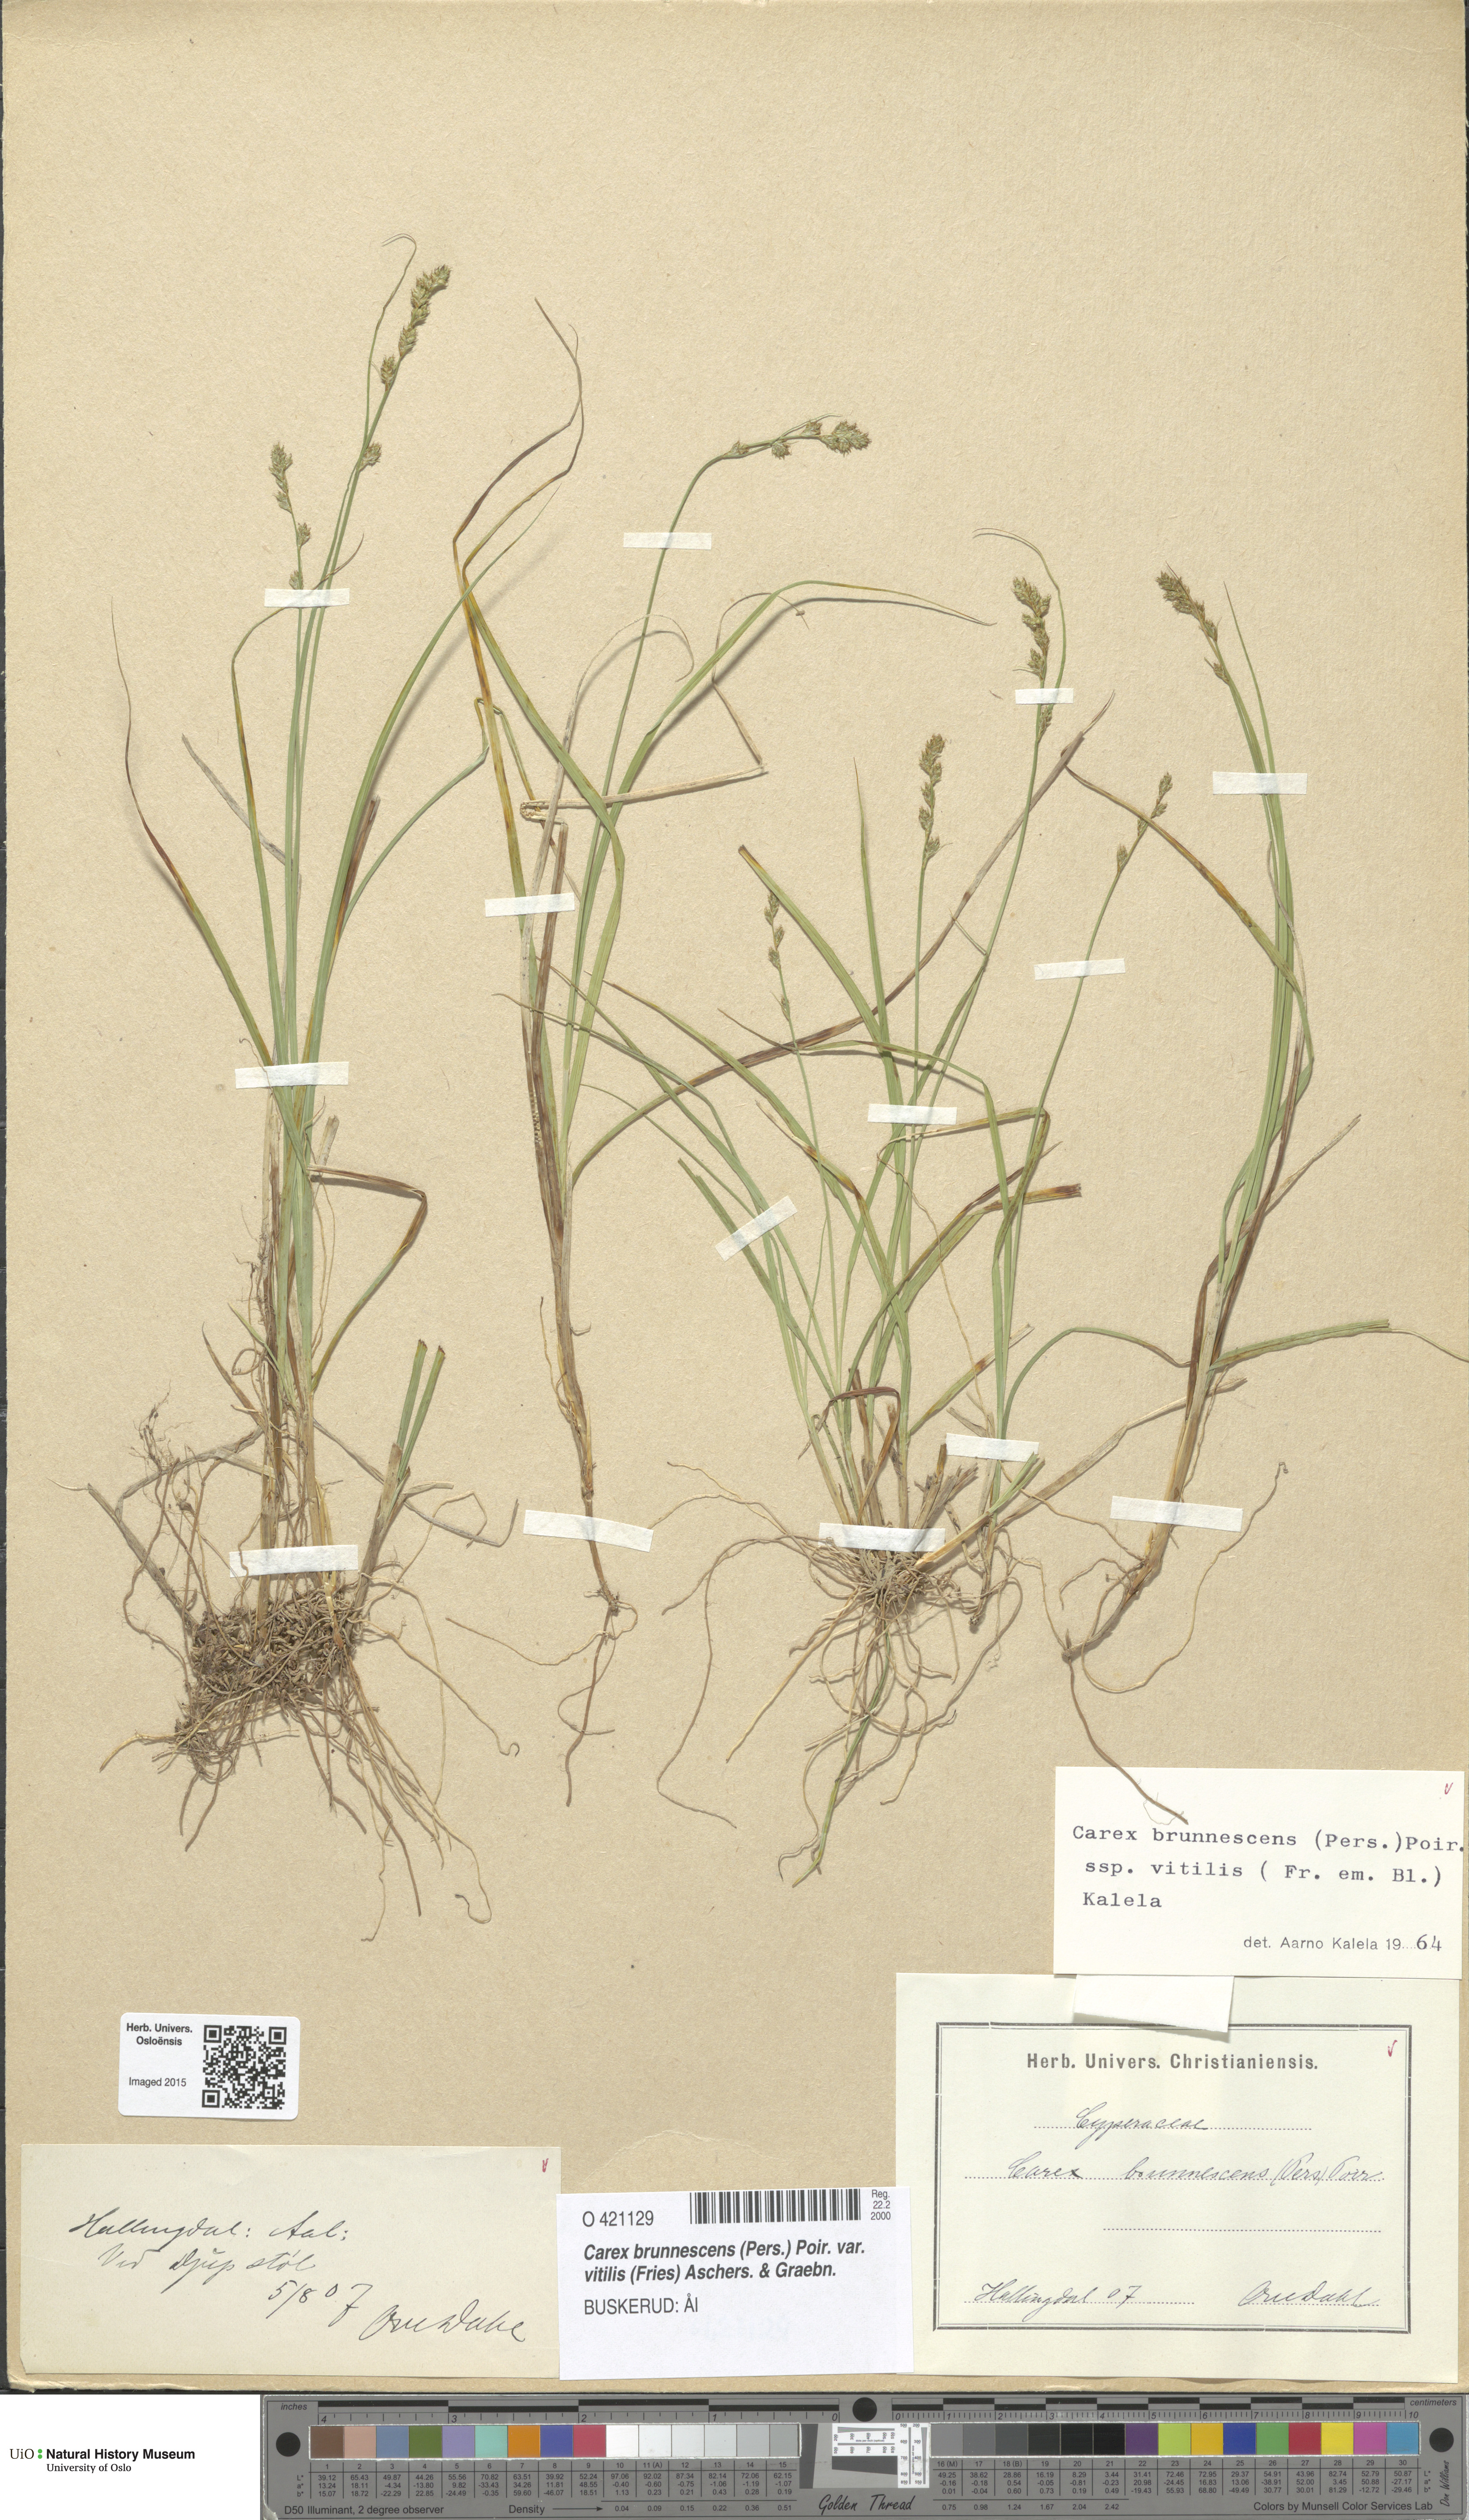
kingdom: Plantae
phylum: Tracheophyta
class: Liliopsida
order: Poales
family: Cyperaceae
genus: Carex
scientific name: Carex brunnescens
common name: Brown sedge
